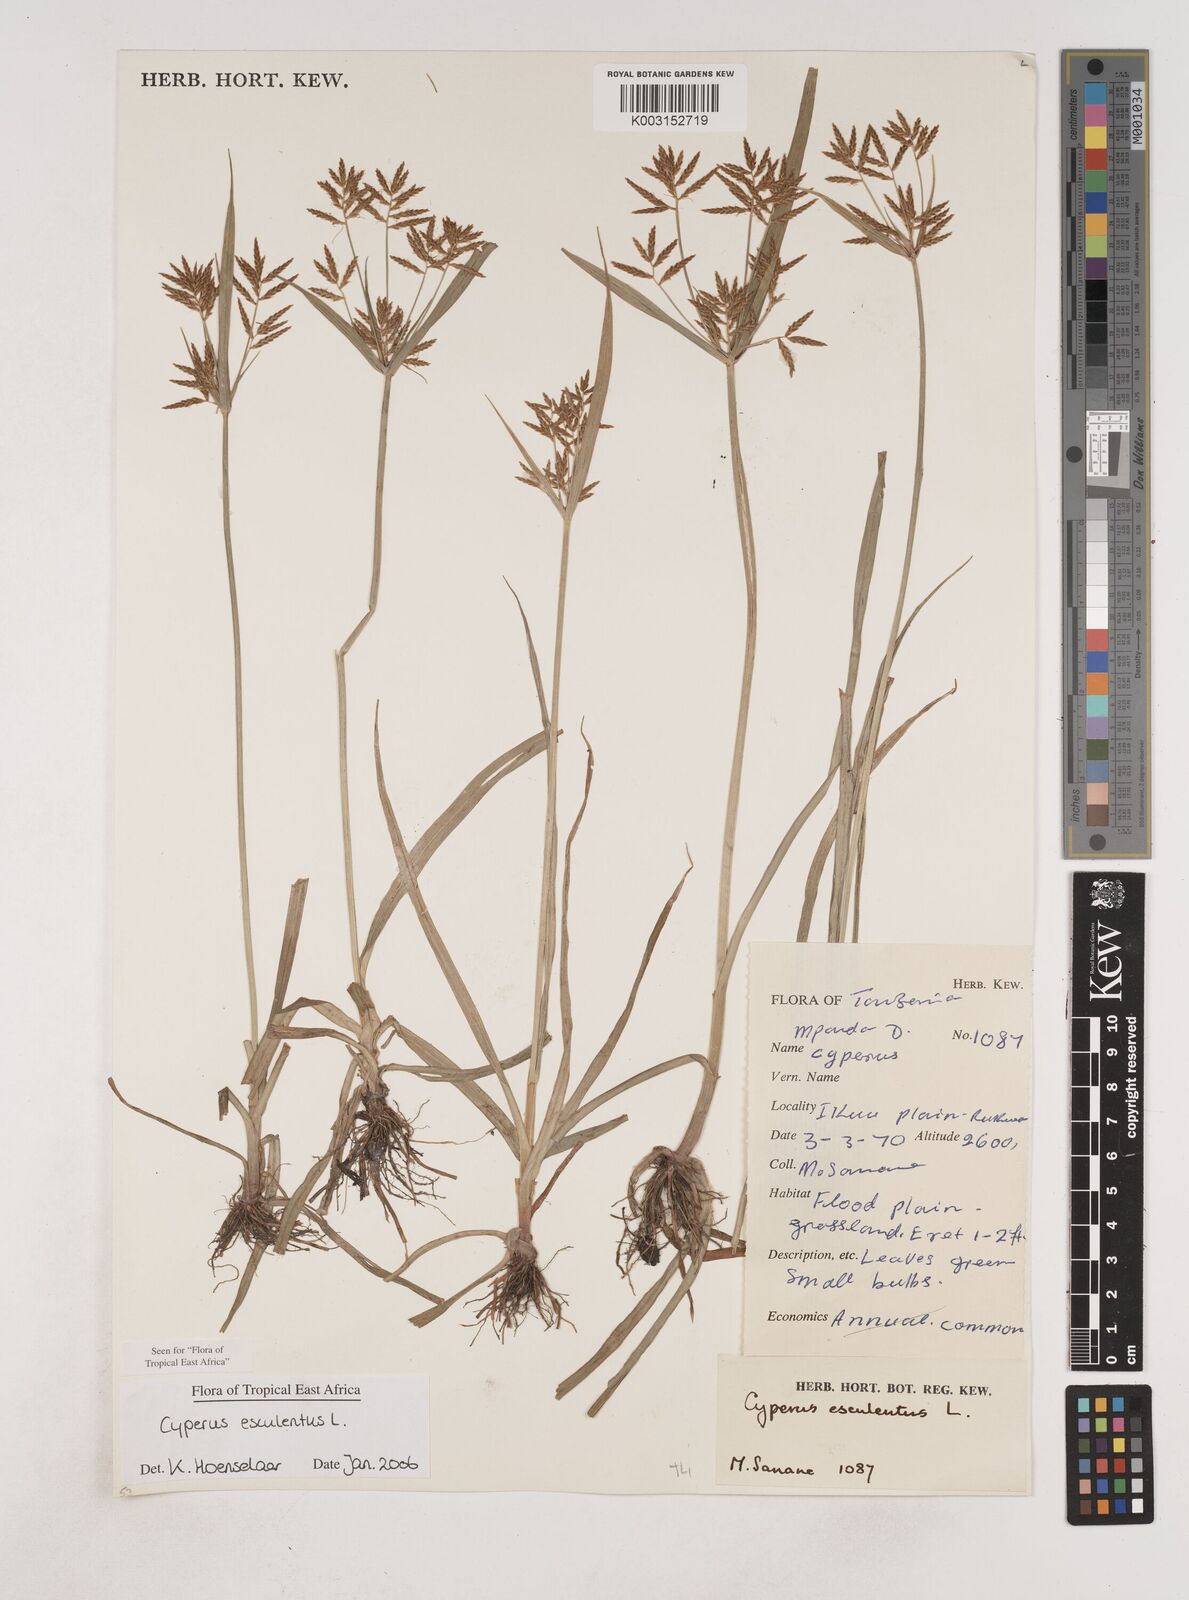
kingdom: Plantae
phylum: Tracheophyta
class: Liliopsida
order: Poales
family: Cyperaceae
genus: Cyperus
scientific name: Cyperus esculentus
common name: Yellow nutsedge
